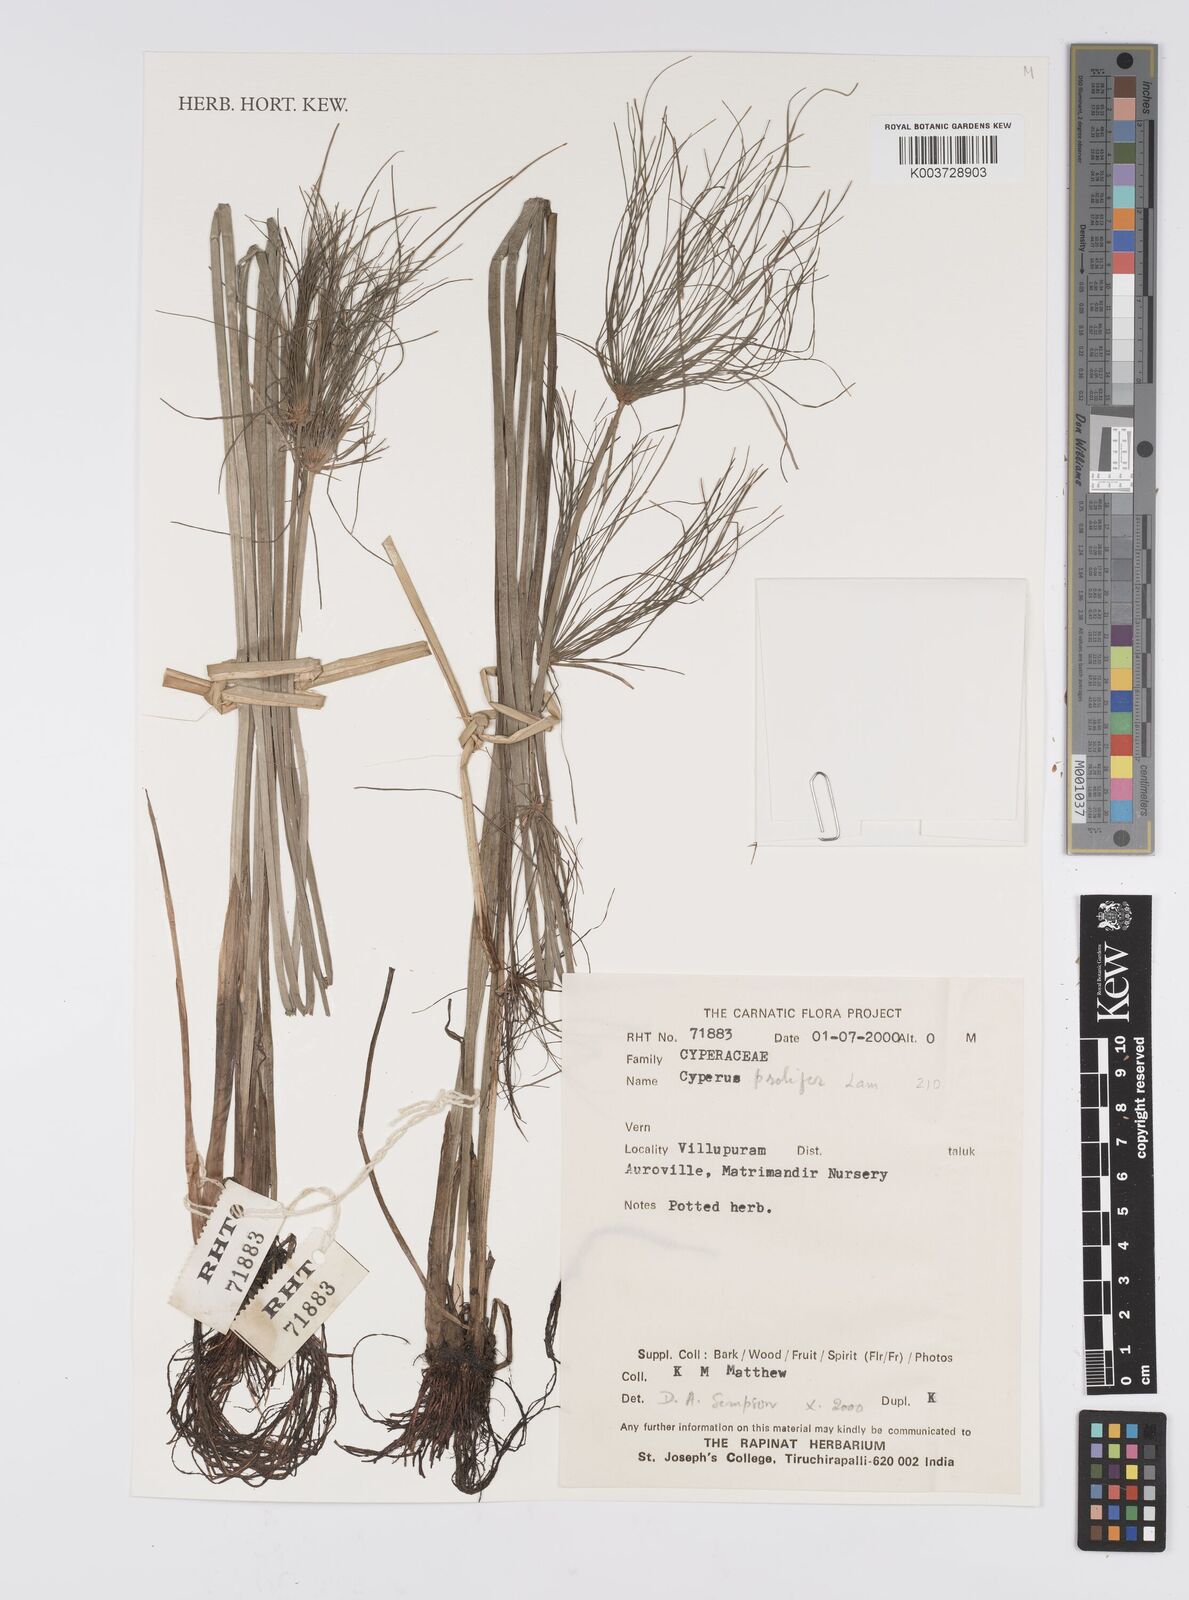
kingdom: Plantae
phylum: Tracheophyta
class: Liliopsida
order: Poales
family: Cyperaceae
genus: Cyperus
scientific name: Cyperus prolifer
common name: Miniature flatsedge
